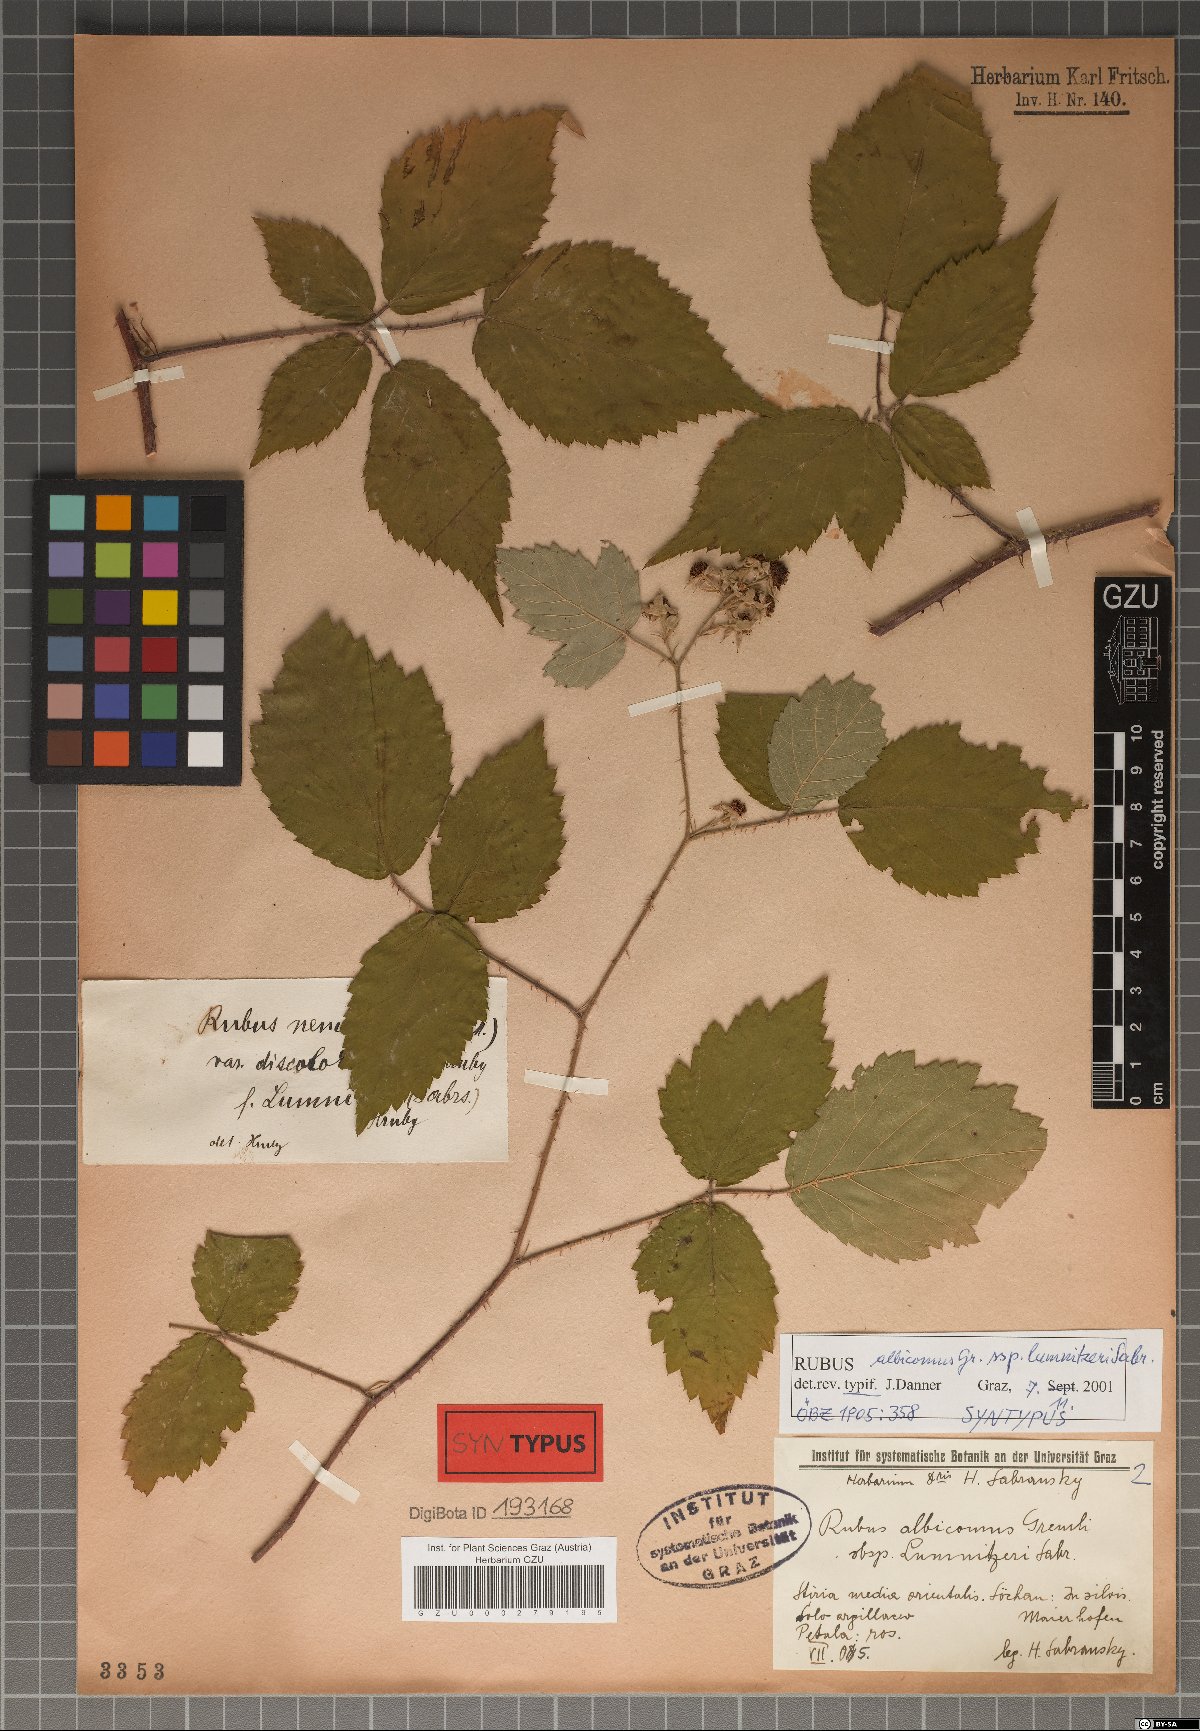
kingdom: Plantae
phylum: Tracheophyta
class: Magnoliopsida
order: Rosales
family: Rosaceae
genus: Rubus
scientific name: Rubus lumnitzeri
